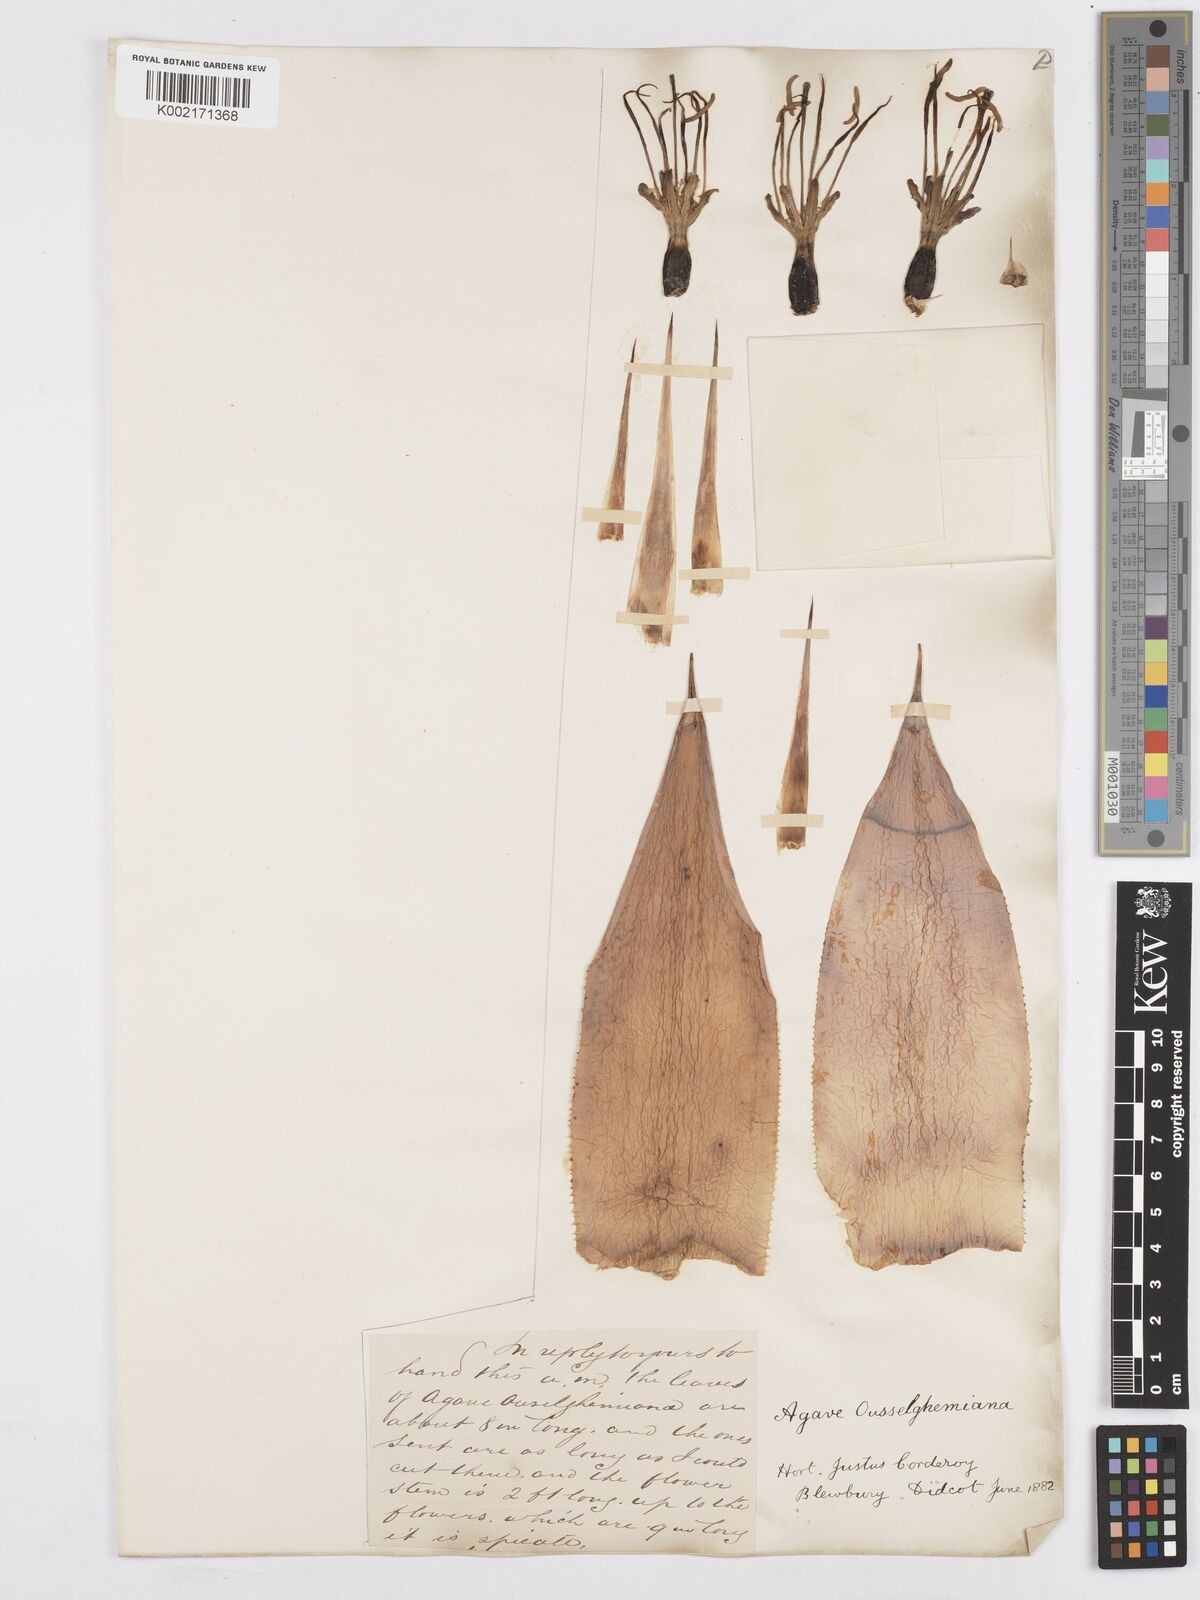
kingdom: Plantae
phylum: Tracheophyta
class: Liliopsida
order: Asparagales
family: Asparagaceae
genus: Agave
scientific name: Agave mitis
